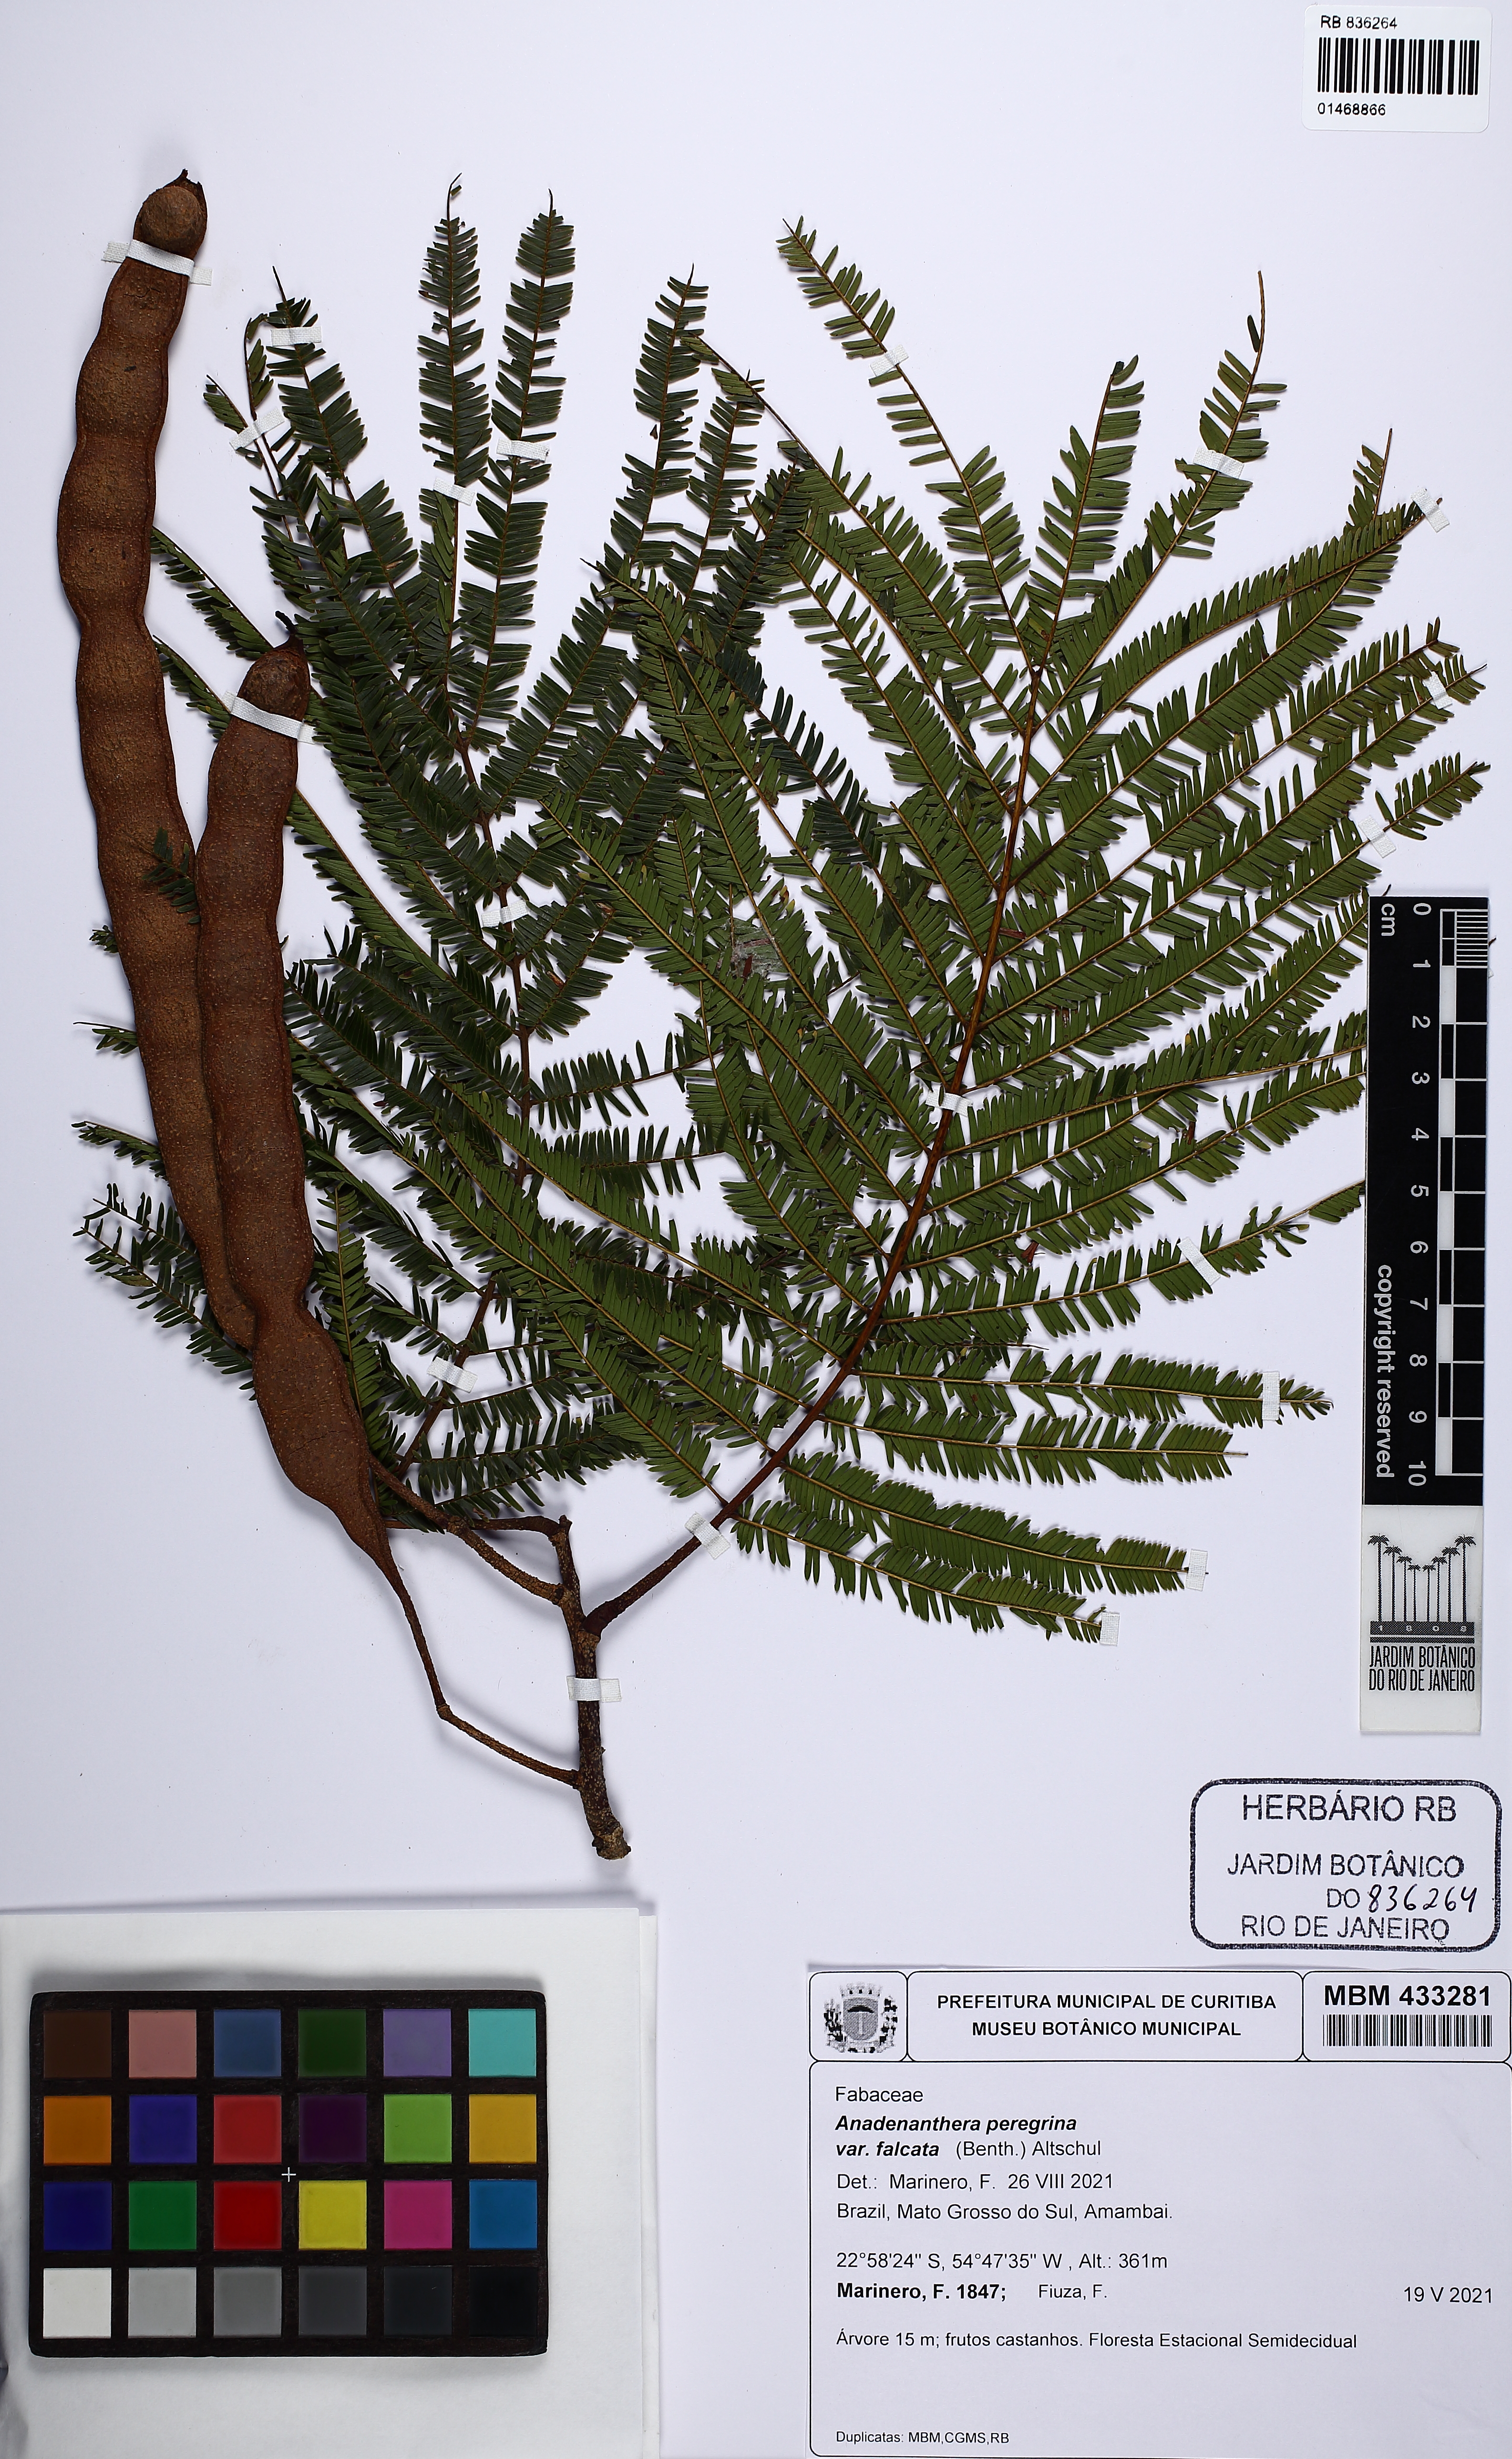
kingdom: Plantae
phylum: Tracheophyta
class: Magnoliopsida
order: Fabales
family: Fabaceae
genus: Anadenanthera
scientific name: Anadenanthera peregrina
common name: Cohoba
